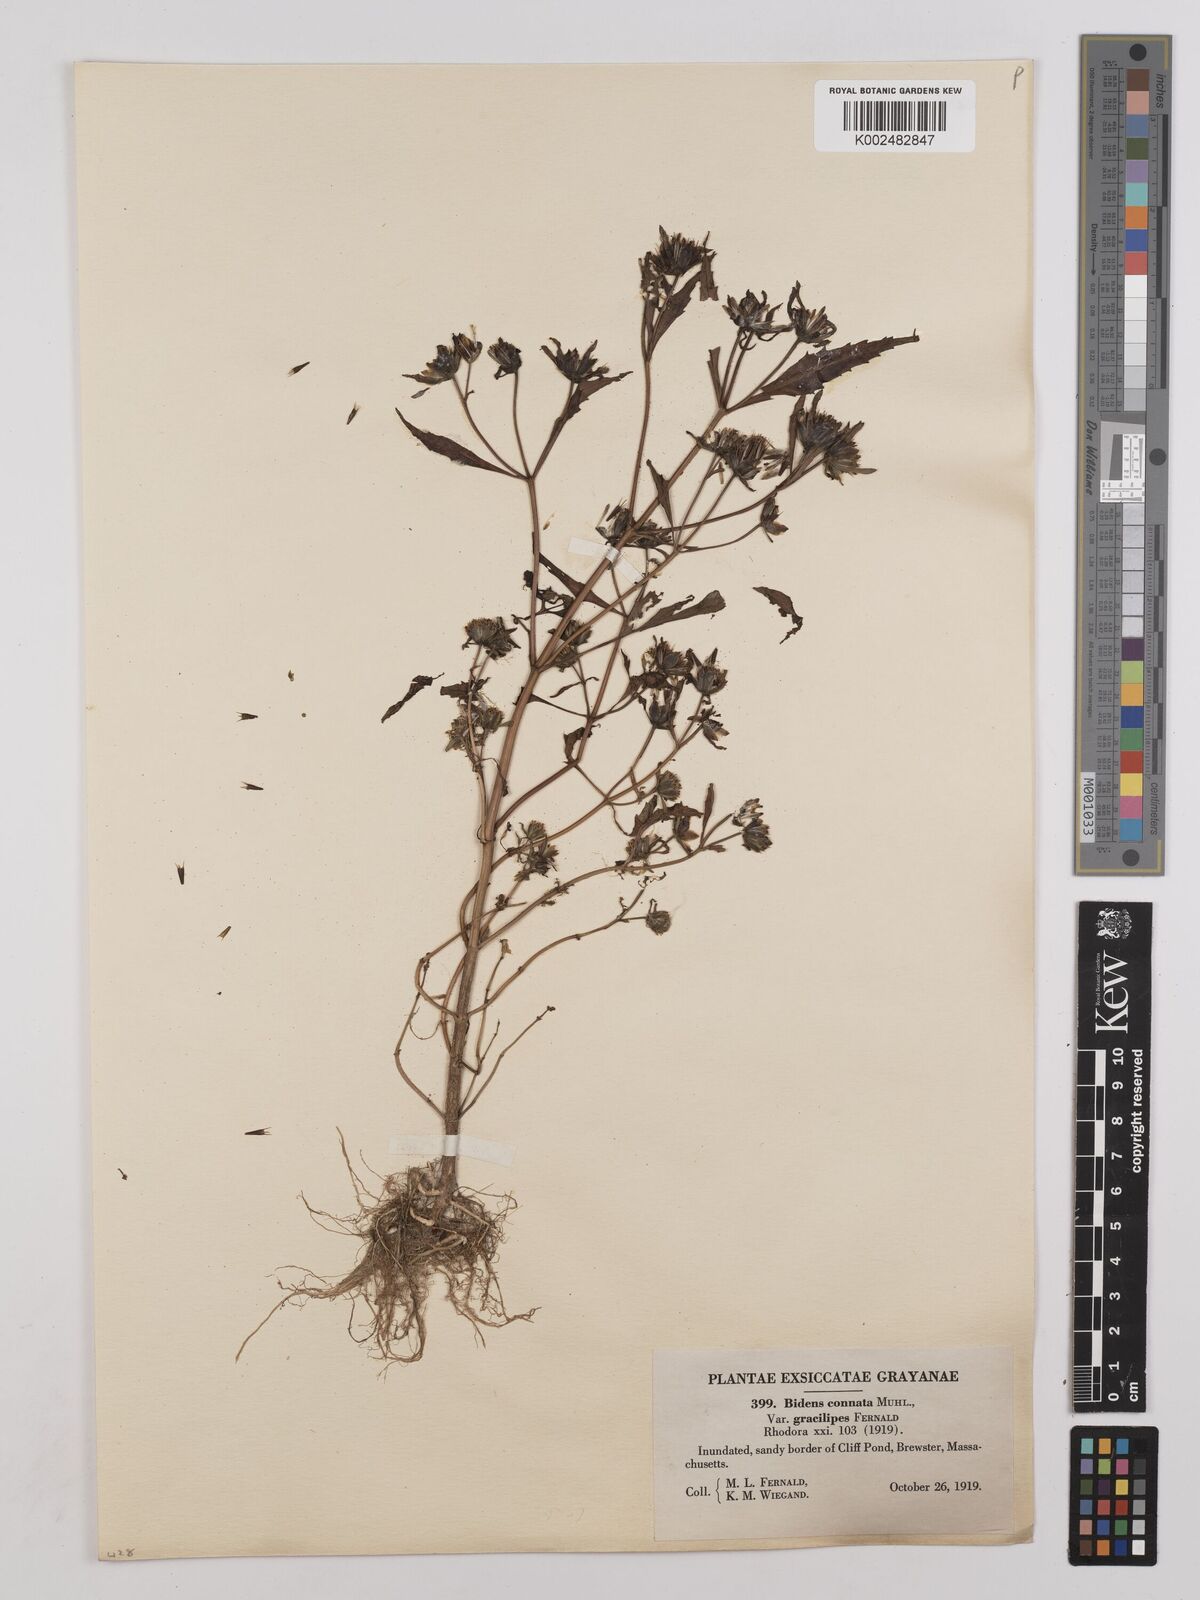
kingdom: Plantae
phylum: Tracheophyta
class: Magnoliopsida
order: Asterales
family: Asteraceae
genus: Bidens
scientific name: Bidens connata
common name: London bur-marigold
